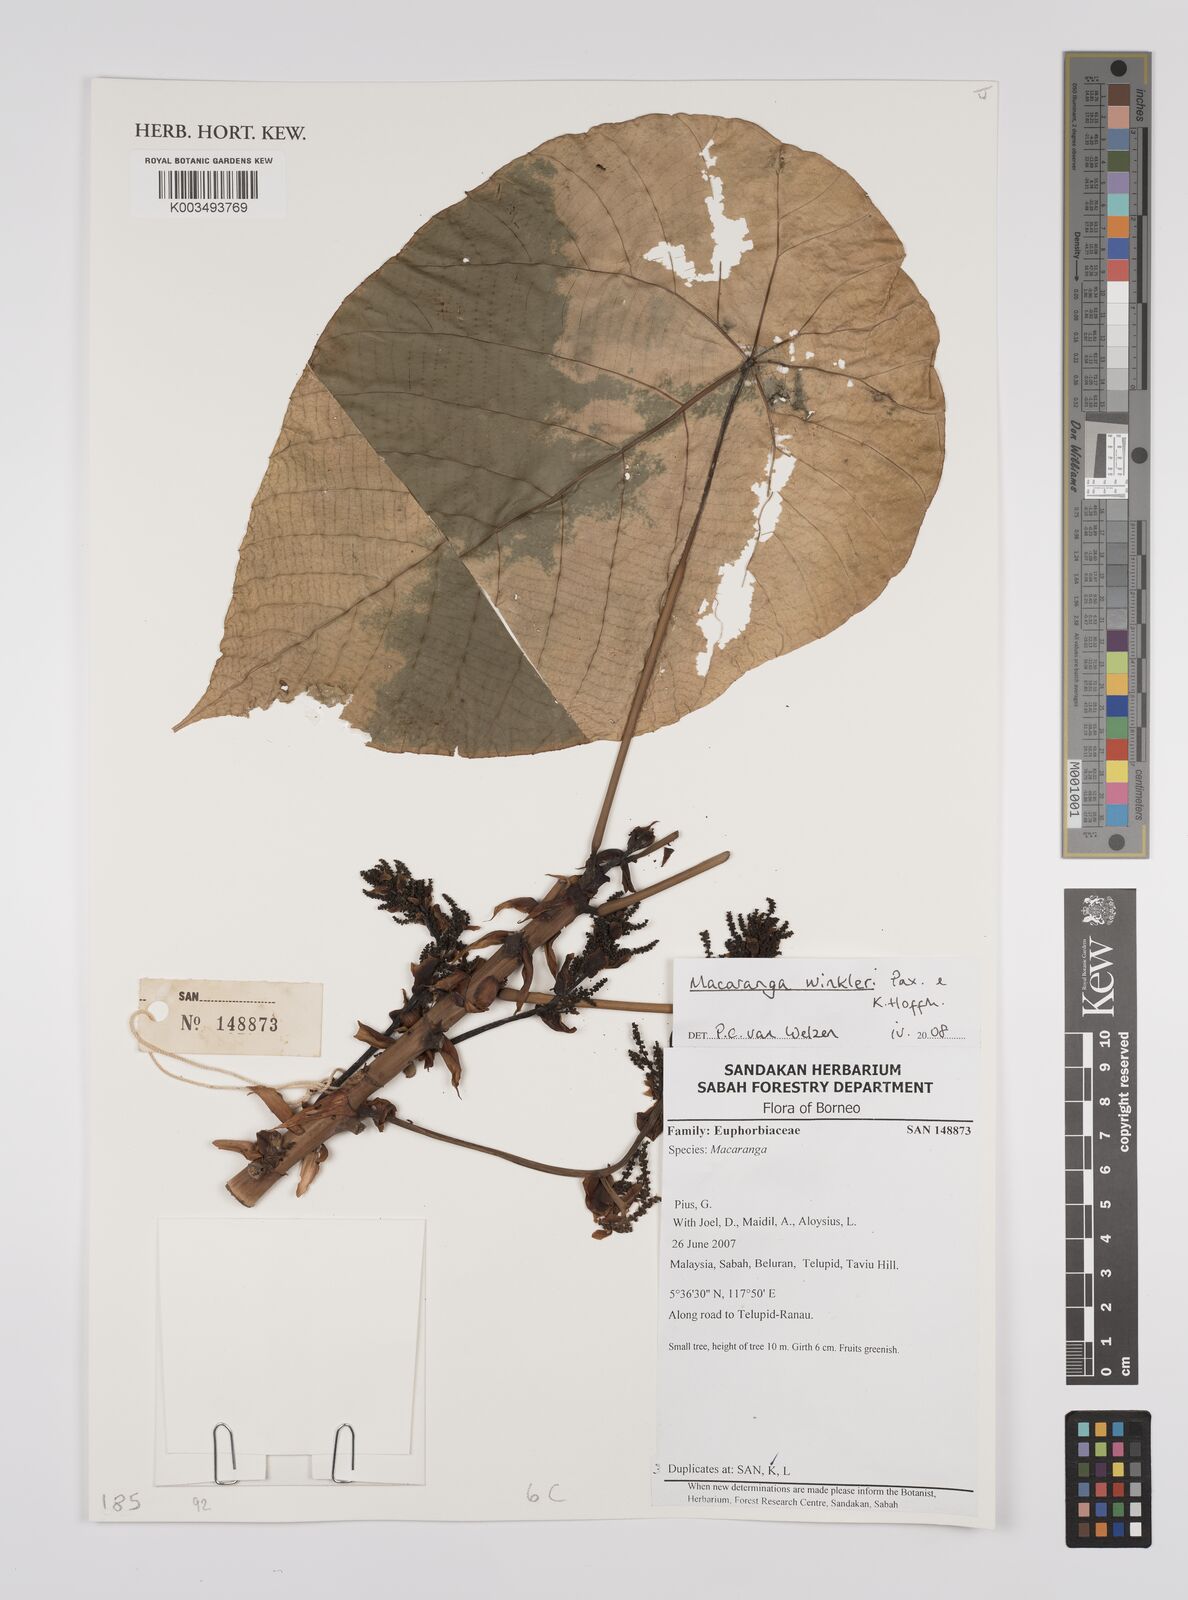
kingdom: Plantae
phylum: Tracheophyta
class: Magnoliopsida
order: Malpighiales
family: Euphorbiaceae
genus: Macaranga
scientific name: Macaranga winkleri
